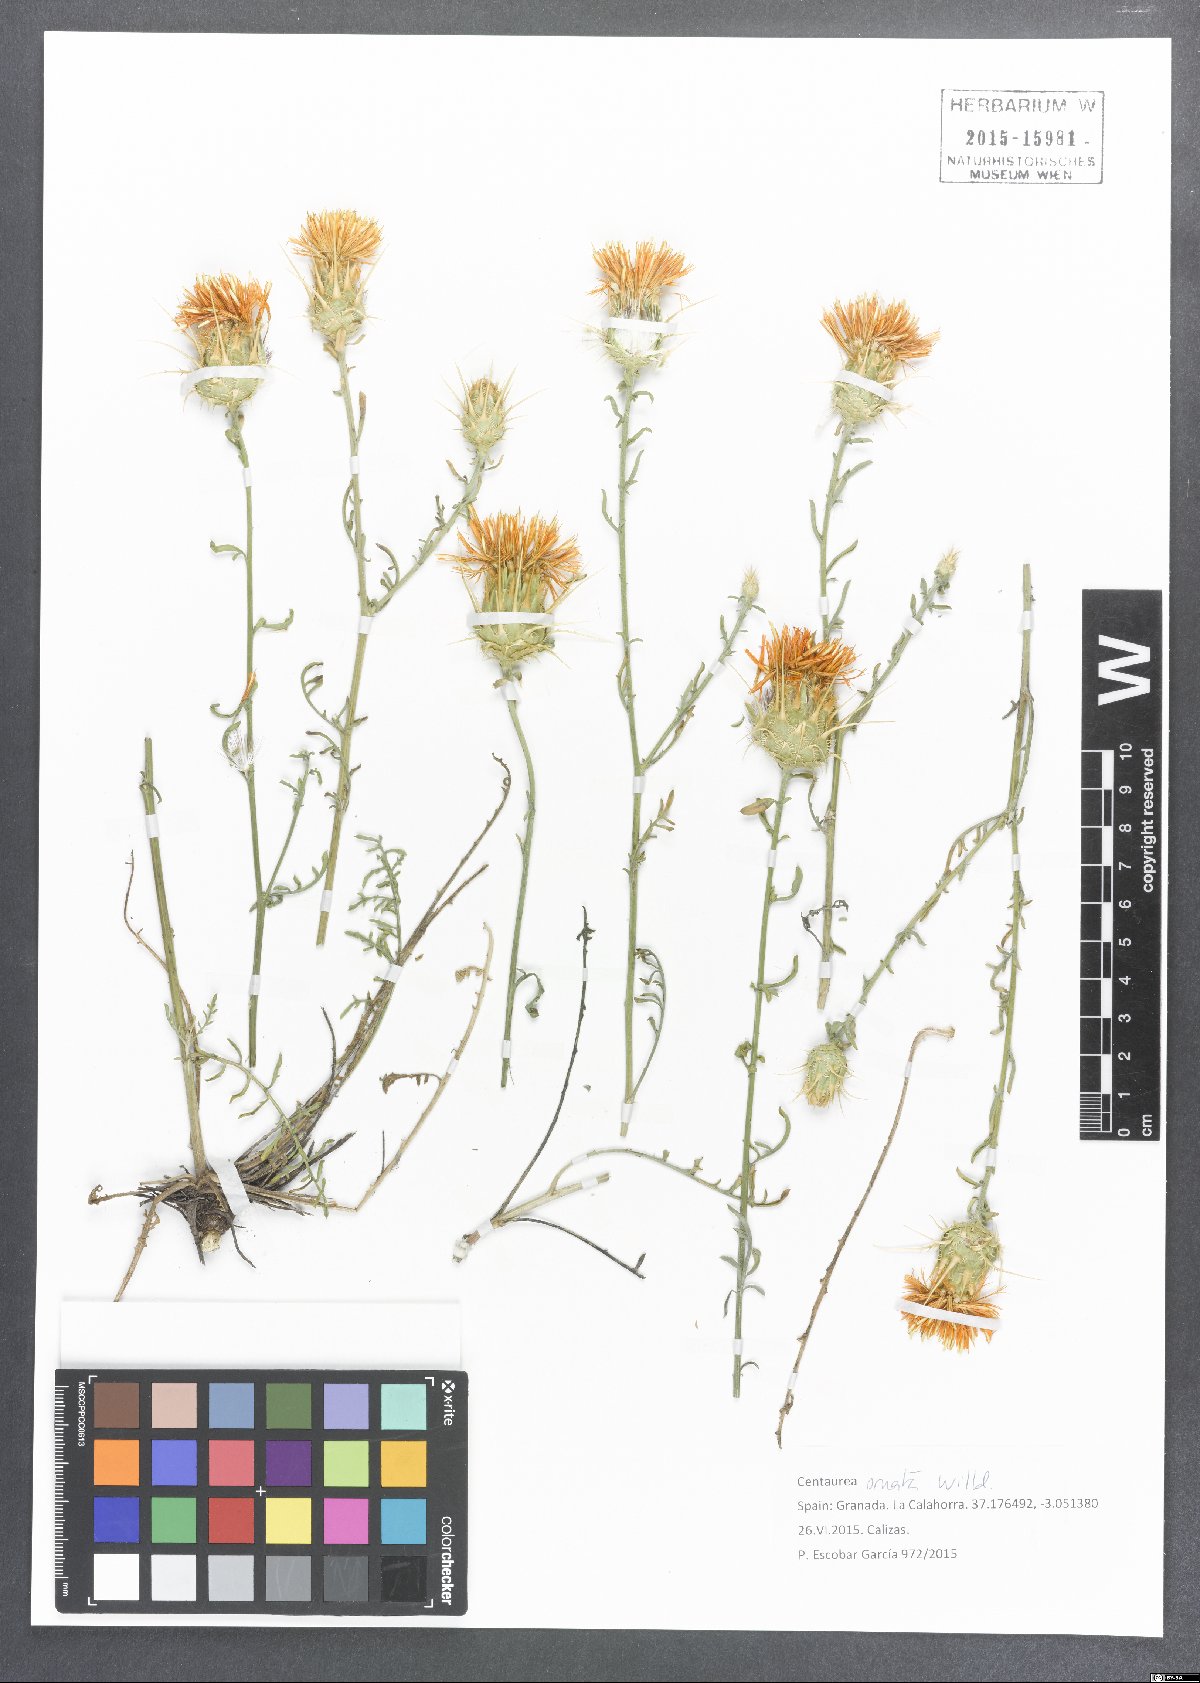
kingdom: Plantae
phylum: Tracheophyta
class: Magnoliopsida
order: Asterales
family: Asteraceae
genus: Centaurea
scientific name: Centaurea ornata
